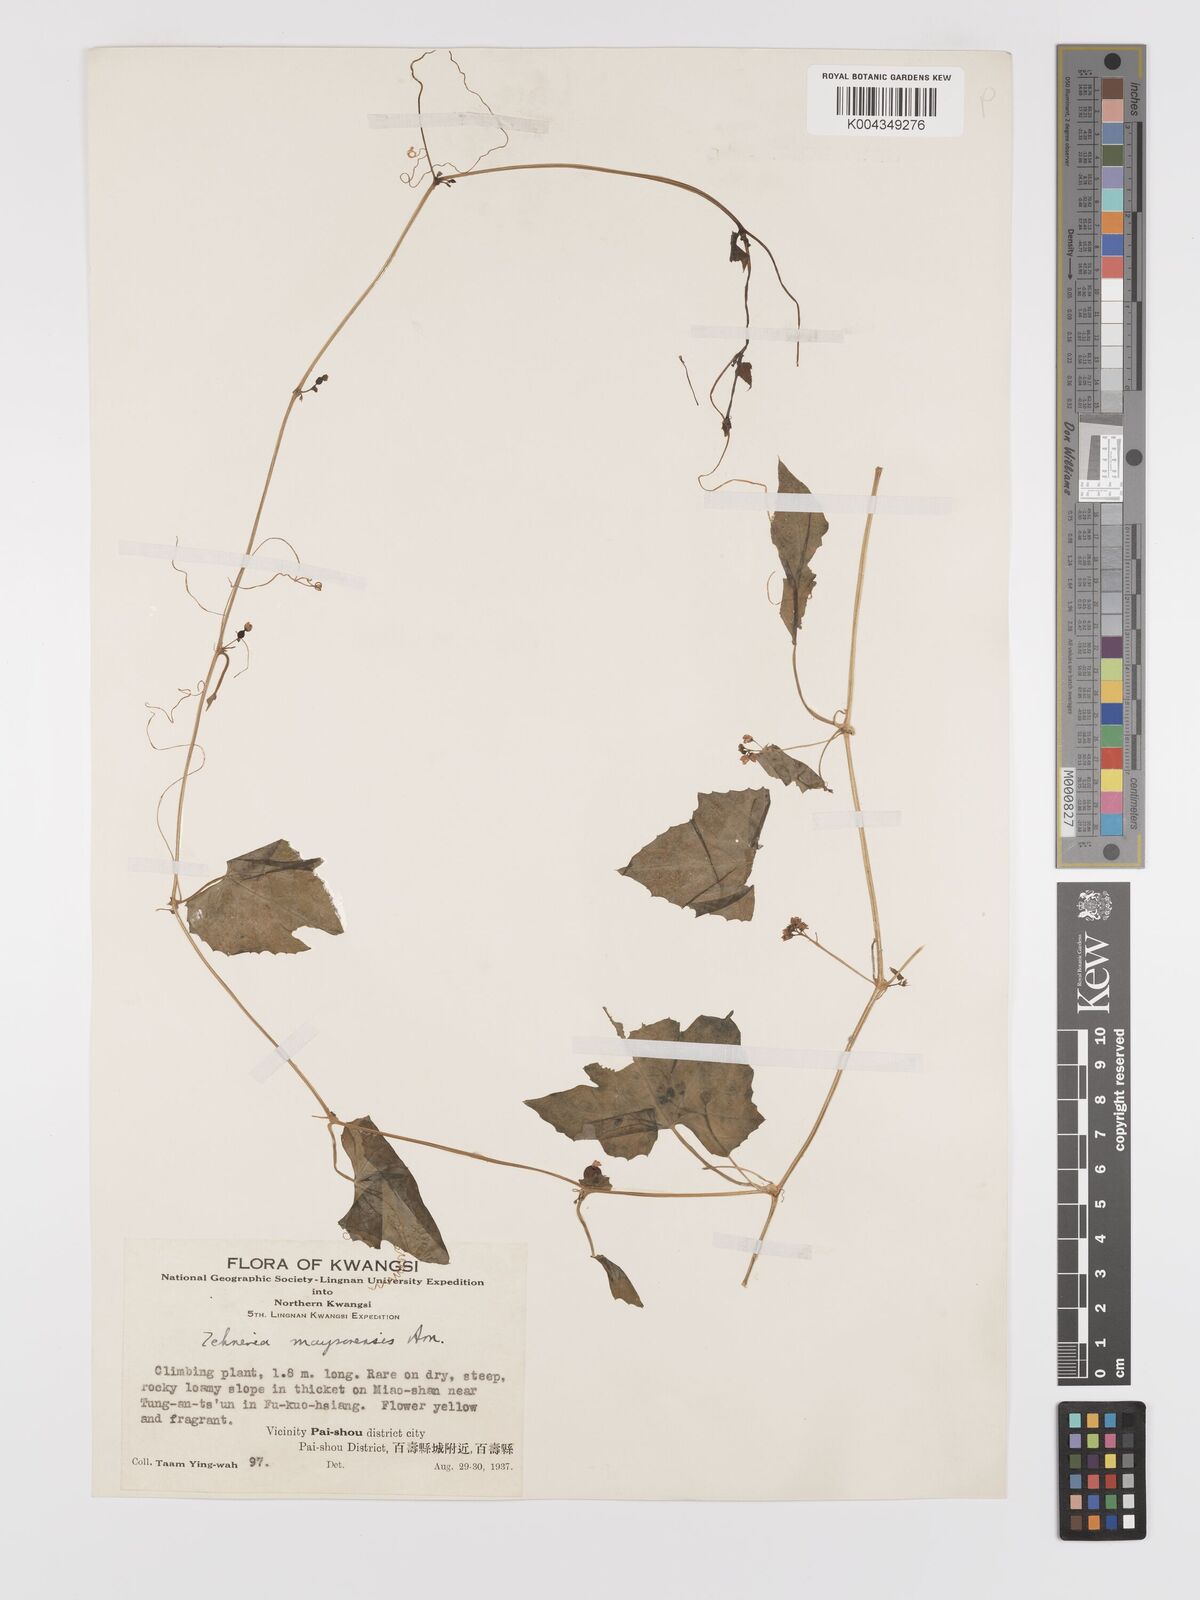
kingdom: Plantae
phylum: Tracheophyta
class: Magnoliopsida
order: Cucurbitales
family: Cucurbitaceae
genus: Zehneria
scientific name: Zehneria maysorensis
